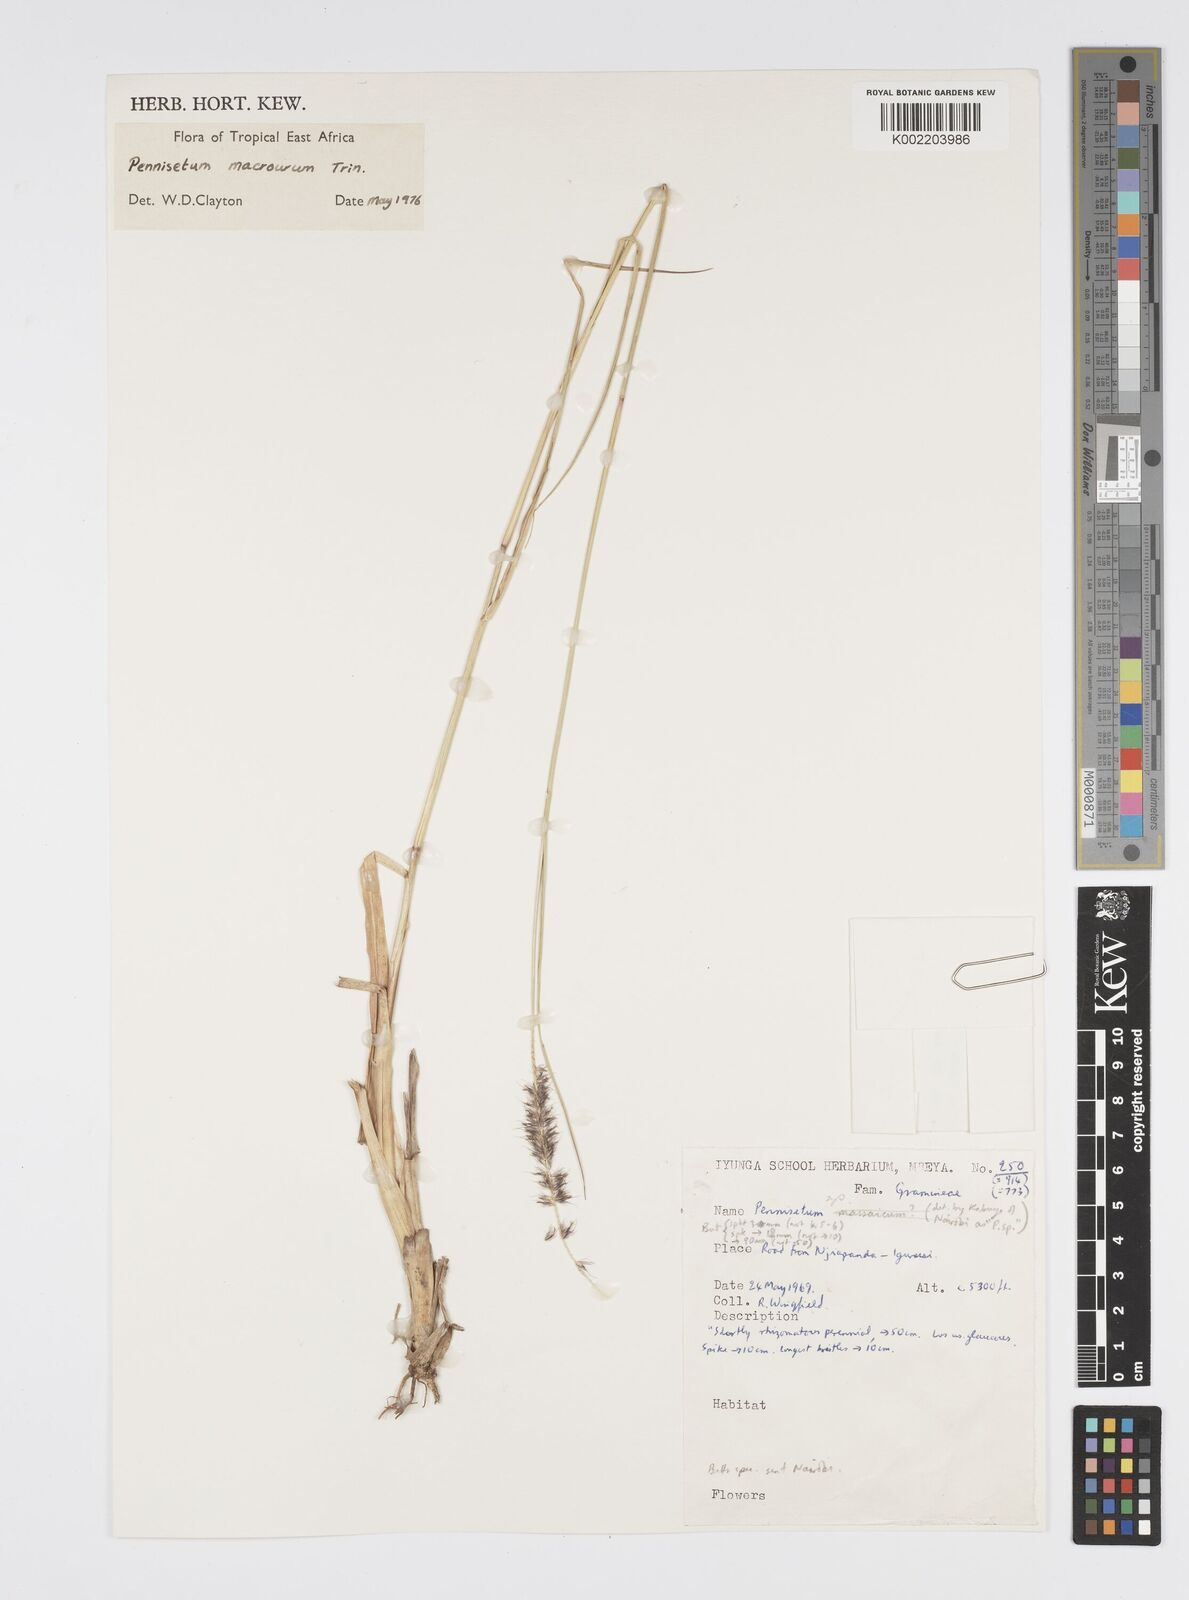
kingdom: Plantae
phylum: Tracheophyta
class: Liliopsida
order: Poales
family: Poaceae
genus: Cenchrus
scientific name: Cenchrus caudatus
